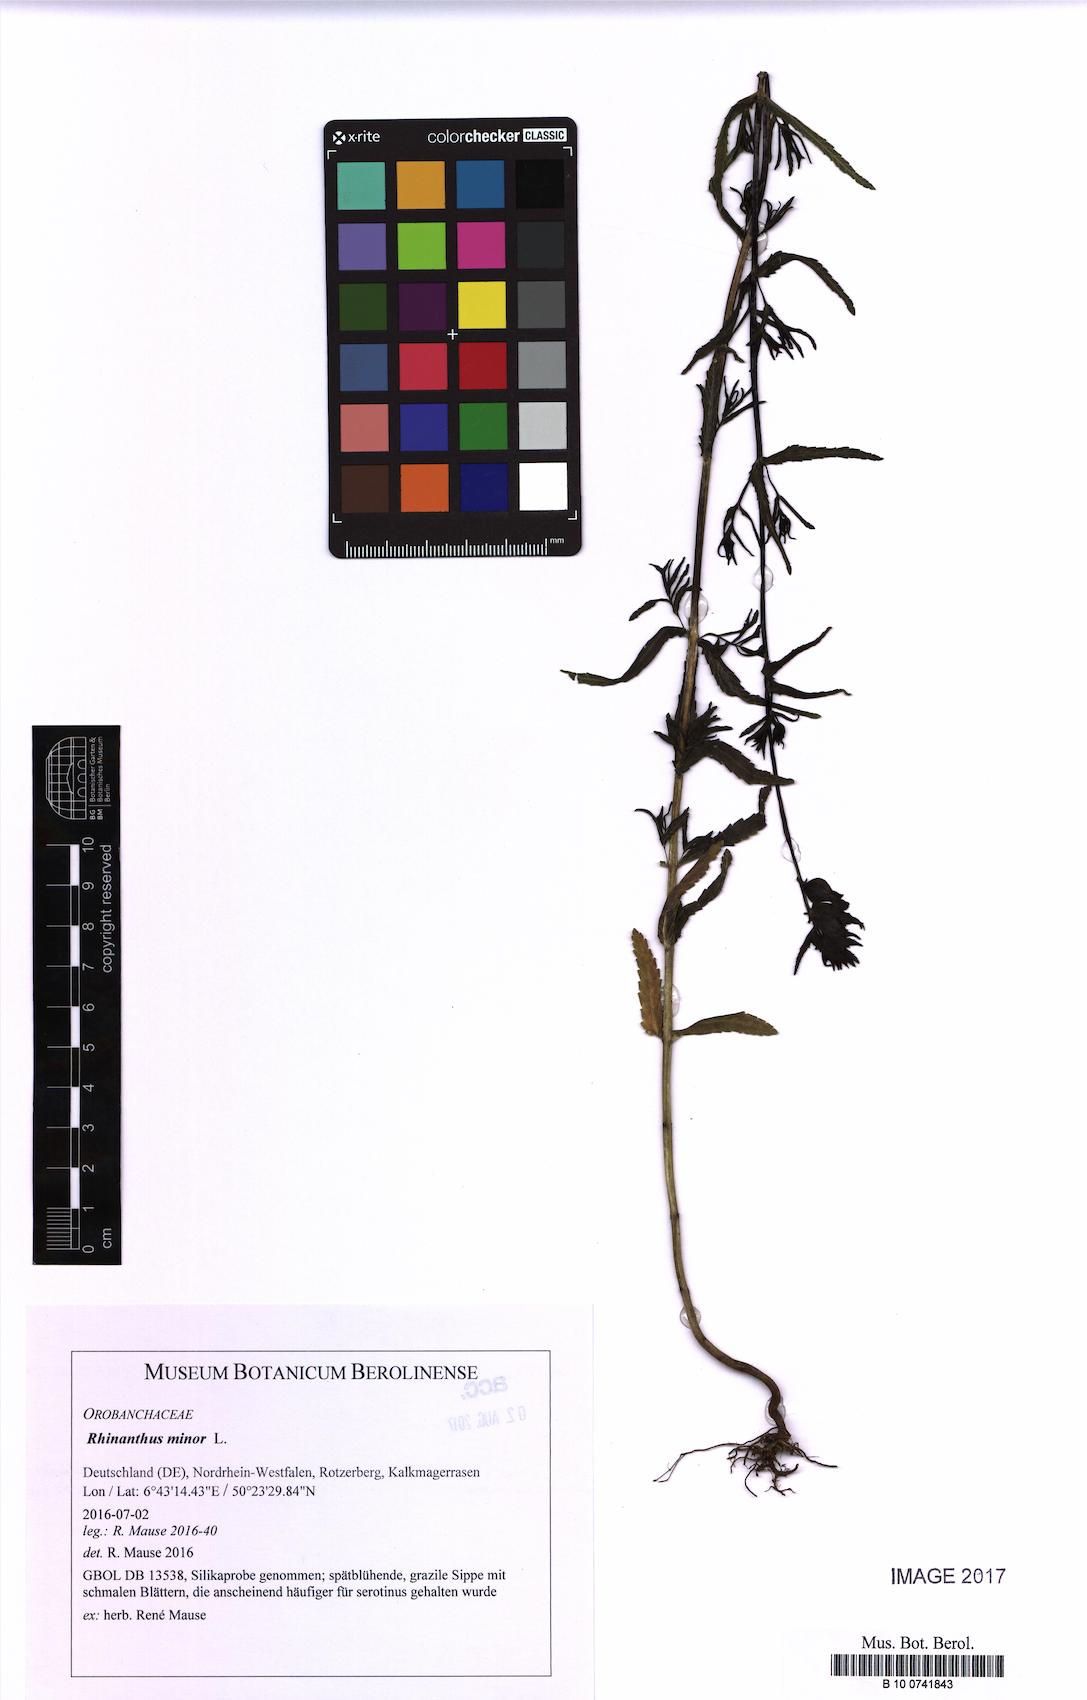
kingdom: Plantae
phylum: Tracheophyta
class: Magnoliopsida
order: Lamiales
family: Orobanchaceae
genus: Rhinanthus
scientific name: Rhinanthus minor
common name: Yellow-rattle
